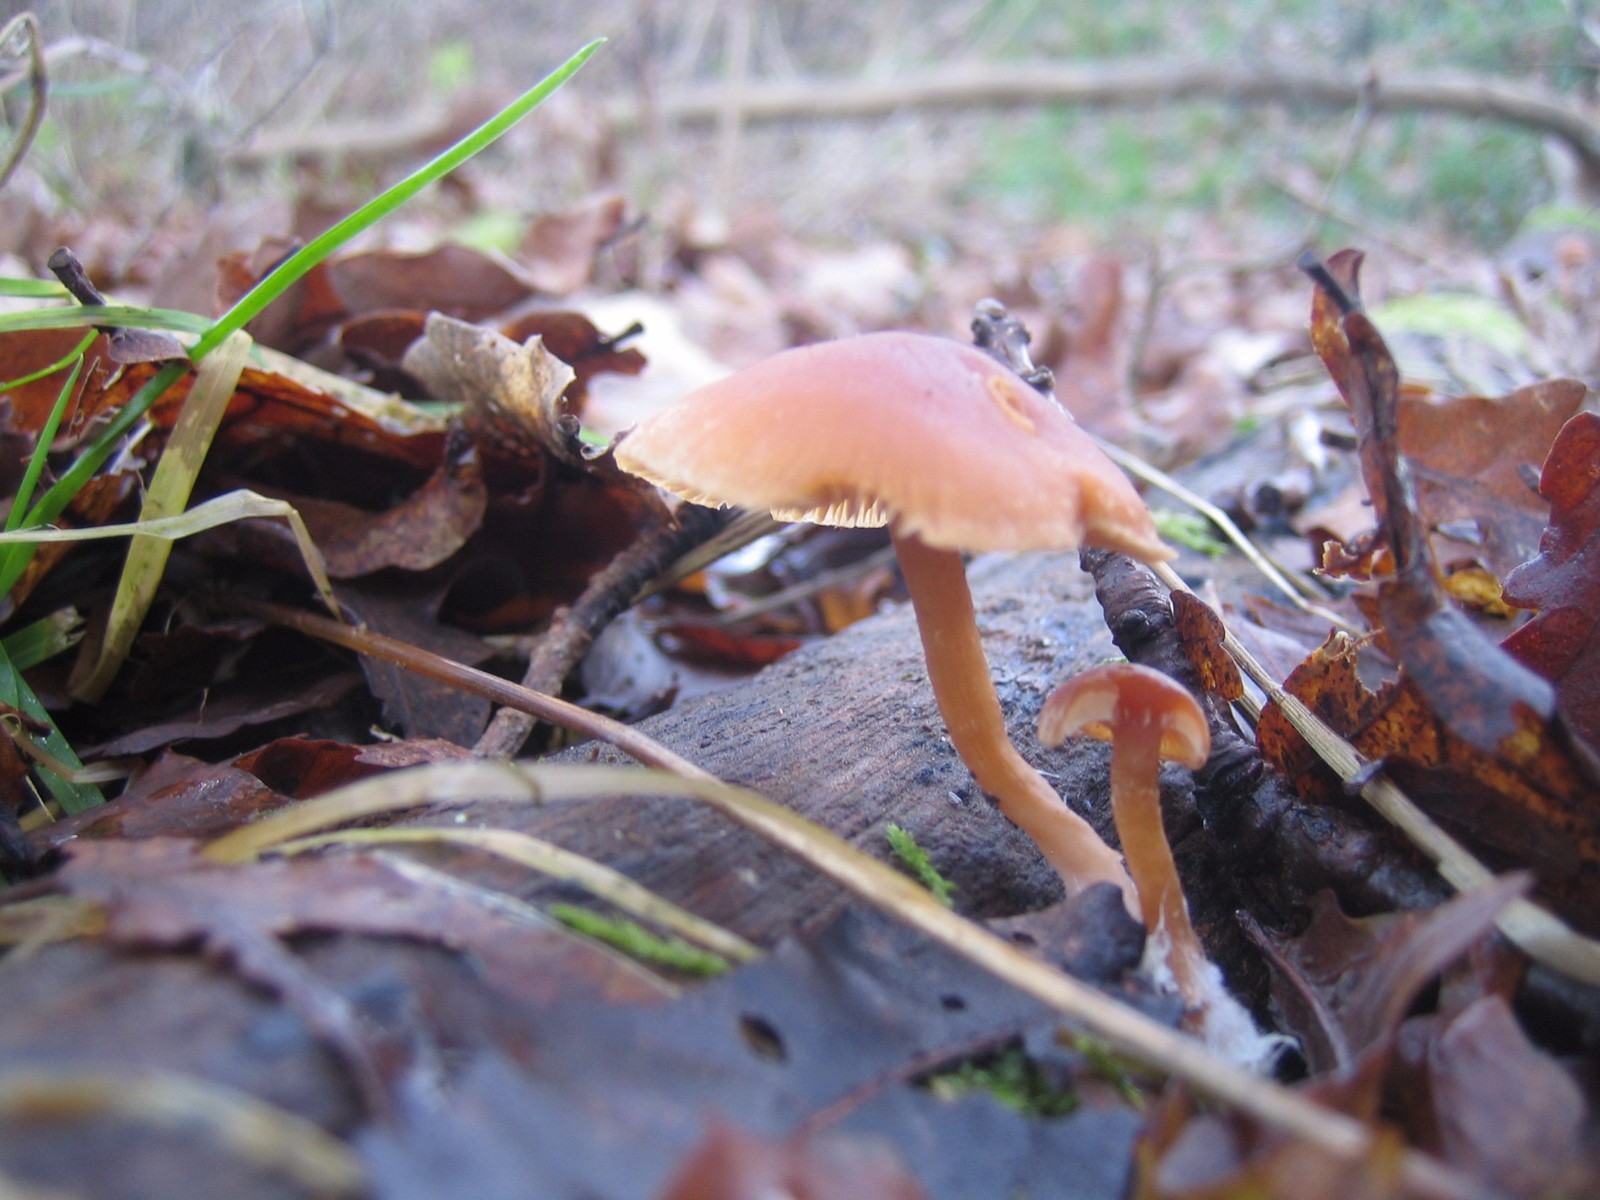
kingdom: Fungi
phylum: Basidiomycota
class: Agaricomycetes
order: Agaricales
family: Tubariaceae
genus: Tubaria
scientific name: Tubaria furfuracea
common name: kliddet fnughat
